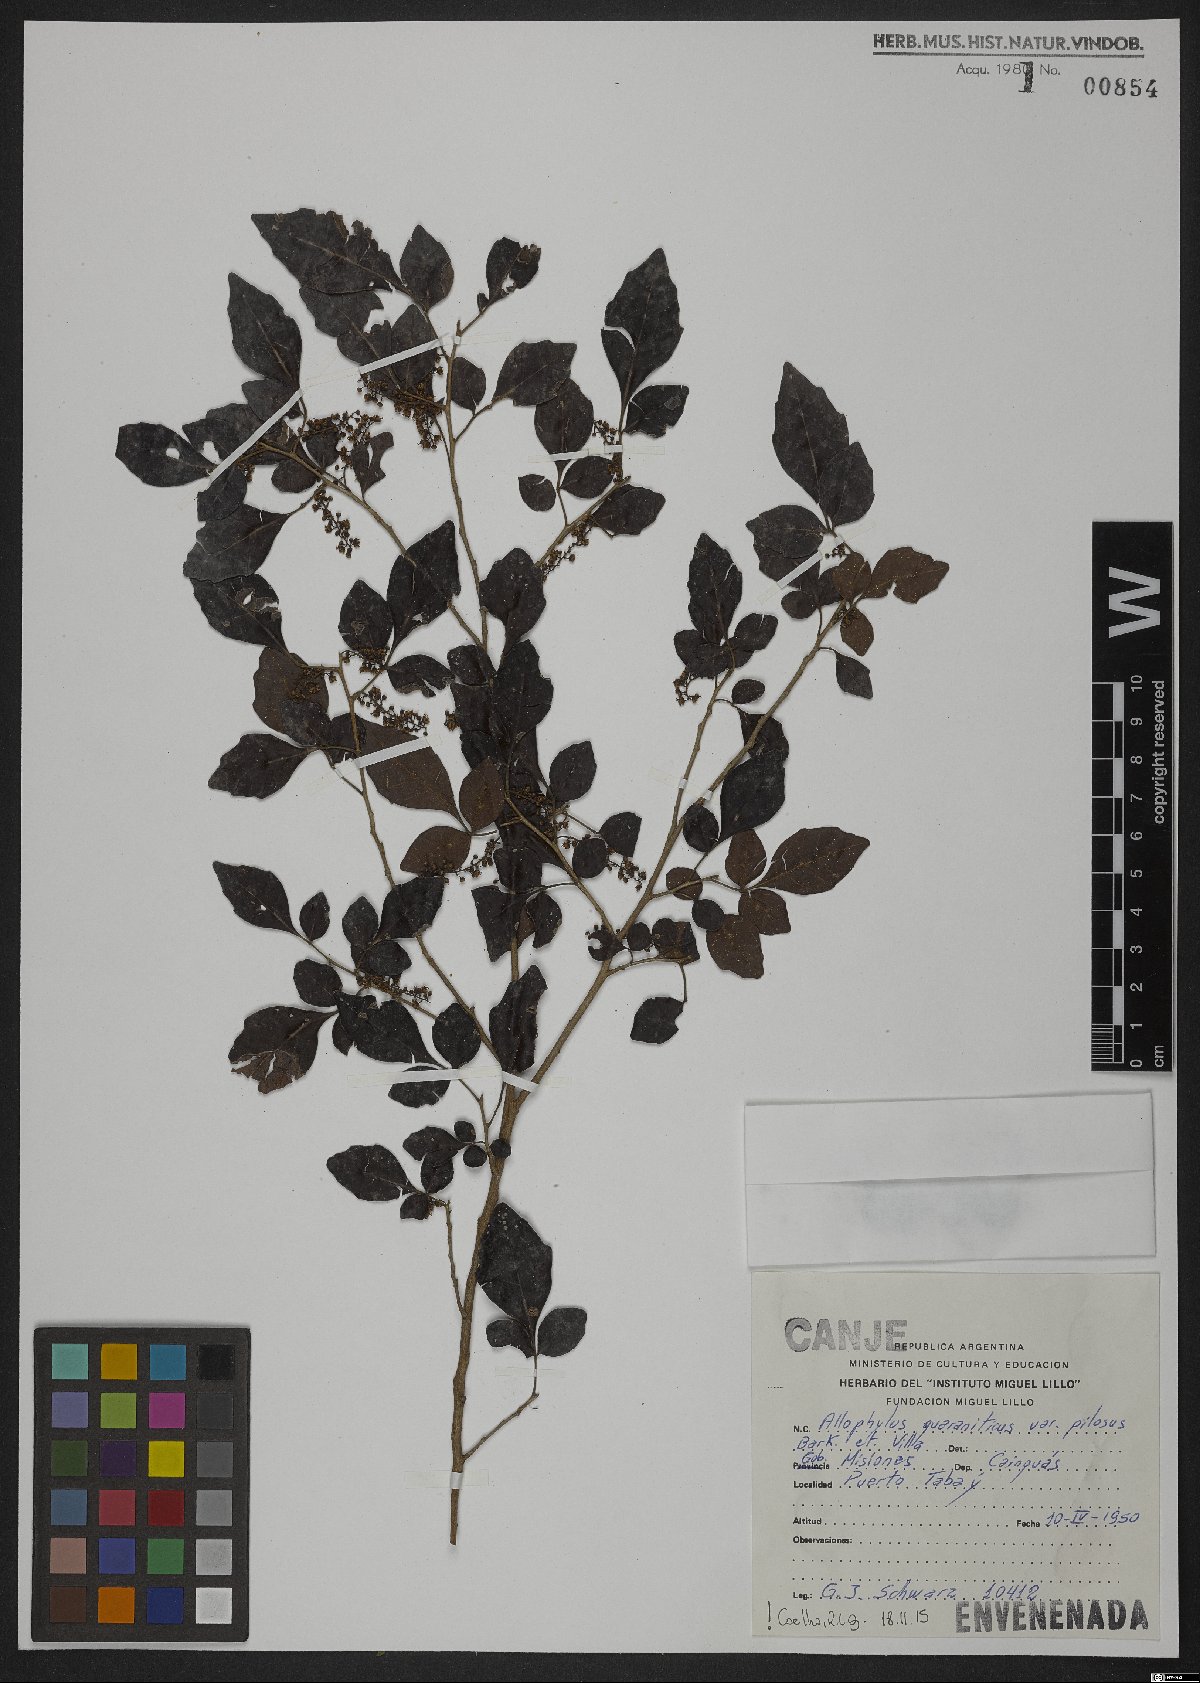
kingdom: Plantae
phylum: Tracheophyta
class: Magnoliopsida
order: Sapindales
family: Sapindaceae
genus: Allophylus
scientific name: Allophylus guaraniticus
